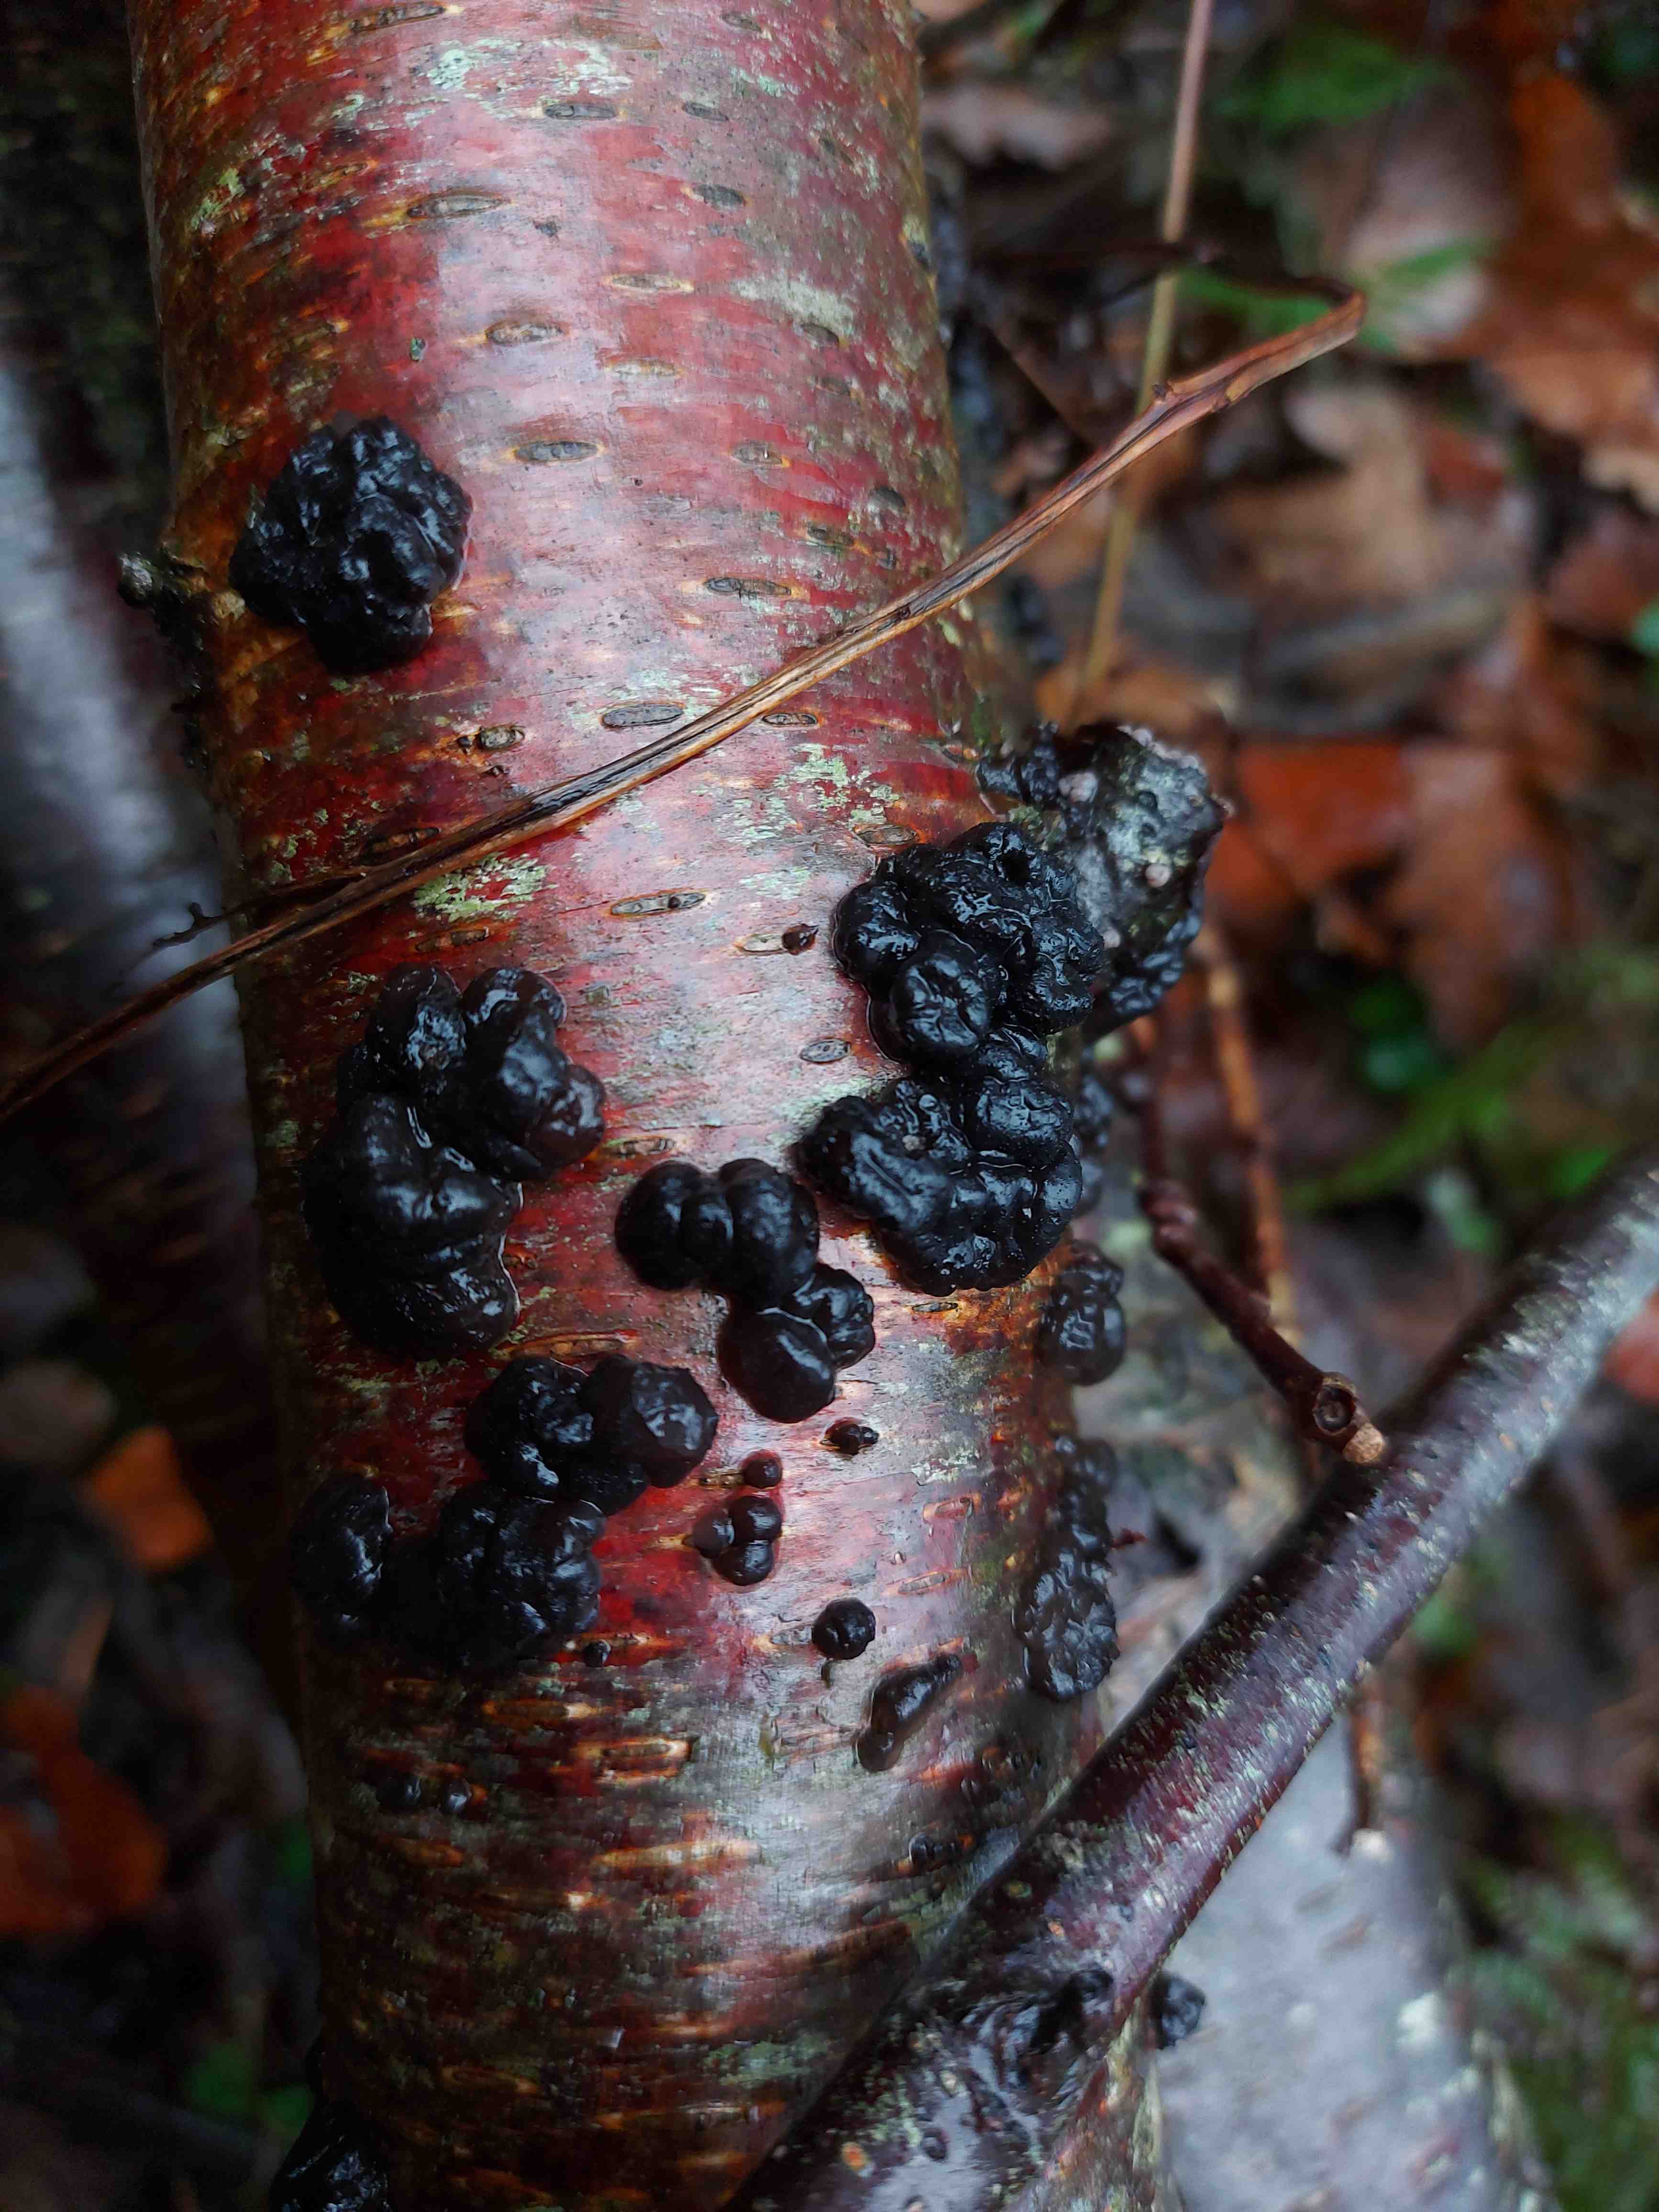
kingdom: Fungi
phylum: Basidiomycota
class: Agaricomycetes
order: Auriculariales
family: Auriculariaceae
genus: Exidia
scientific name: Exidia nigricans
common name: almindelig bævretop
